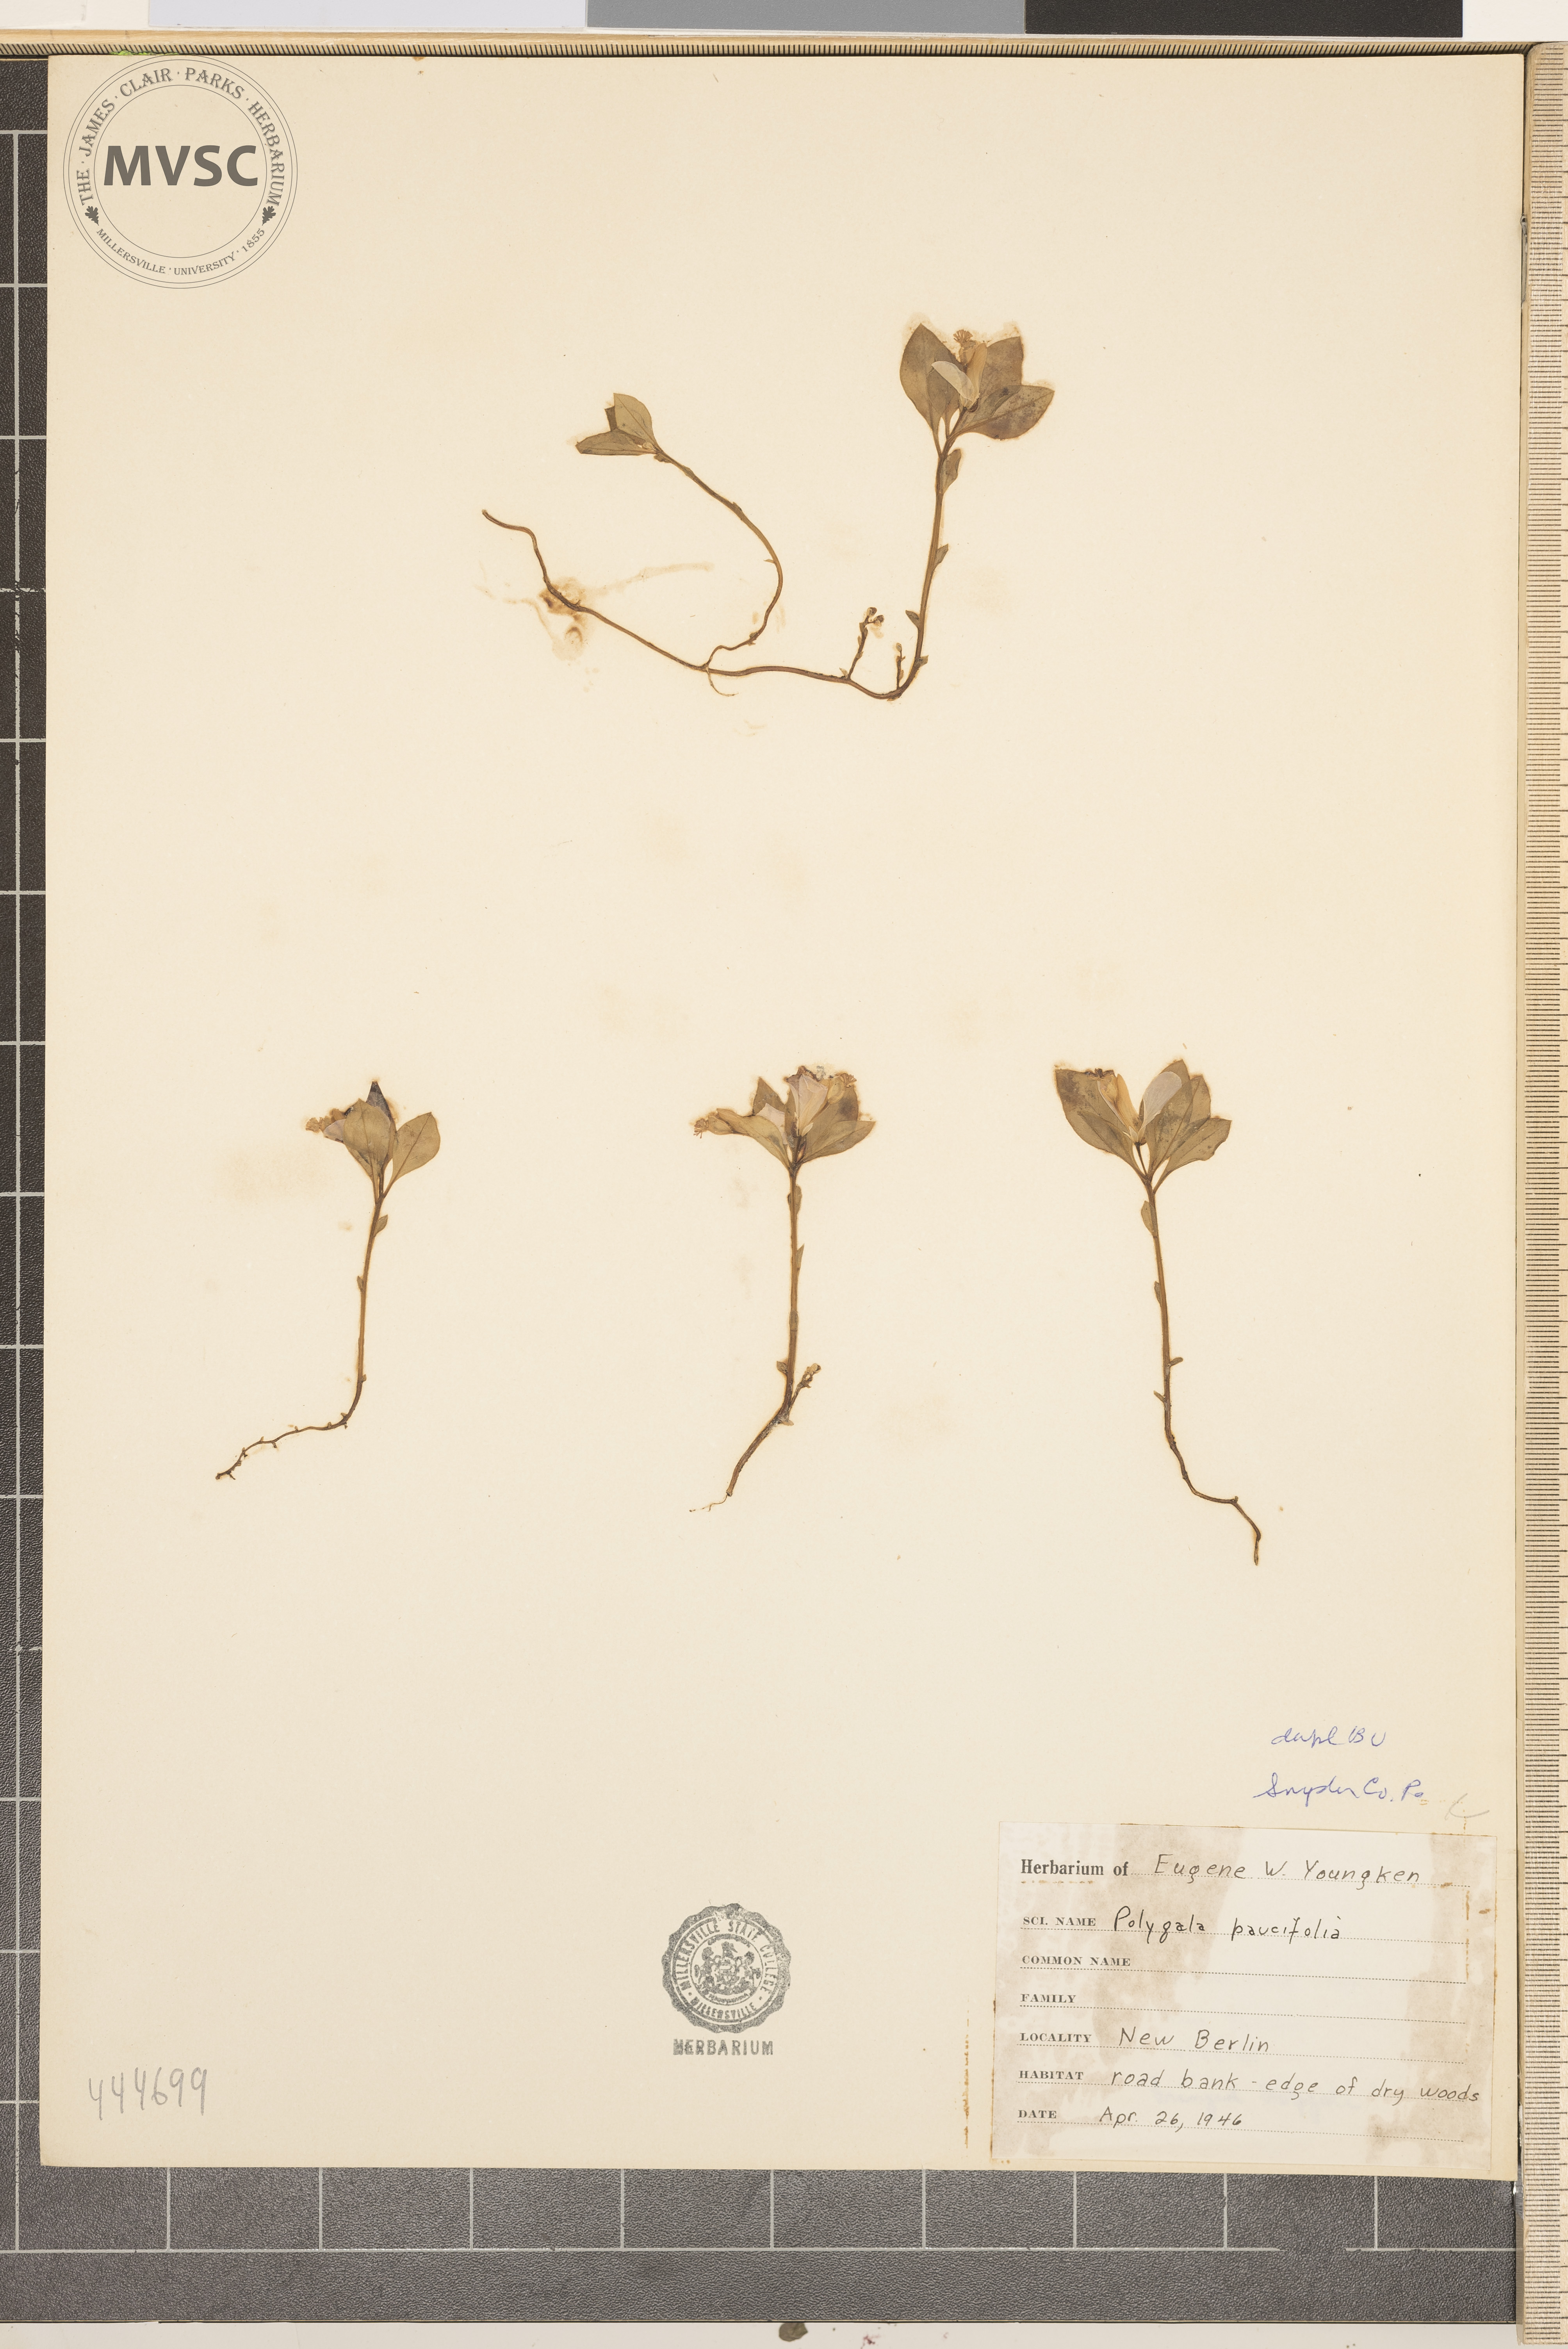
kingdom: Plantae
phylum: Tracheophyta
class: Magnoliopsida
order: Fabales
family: Polygalaceae
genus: Polygaloides
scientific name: Polygaloides paucifolia
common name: Bird-on-the-wing
